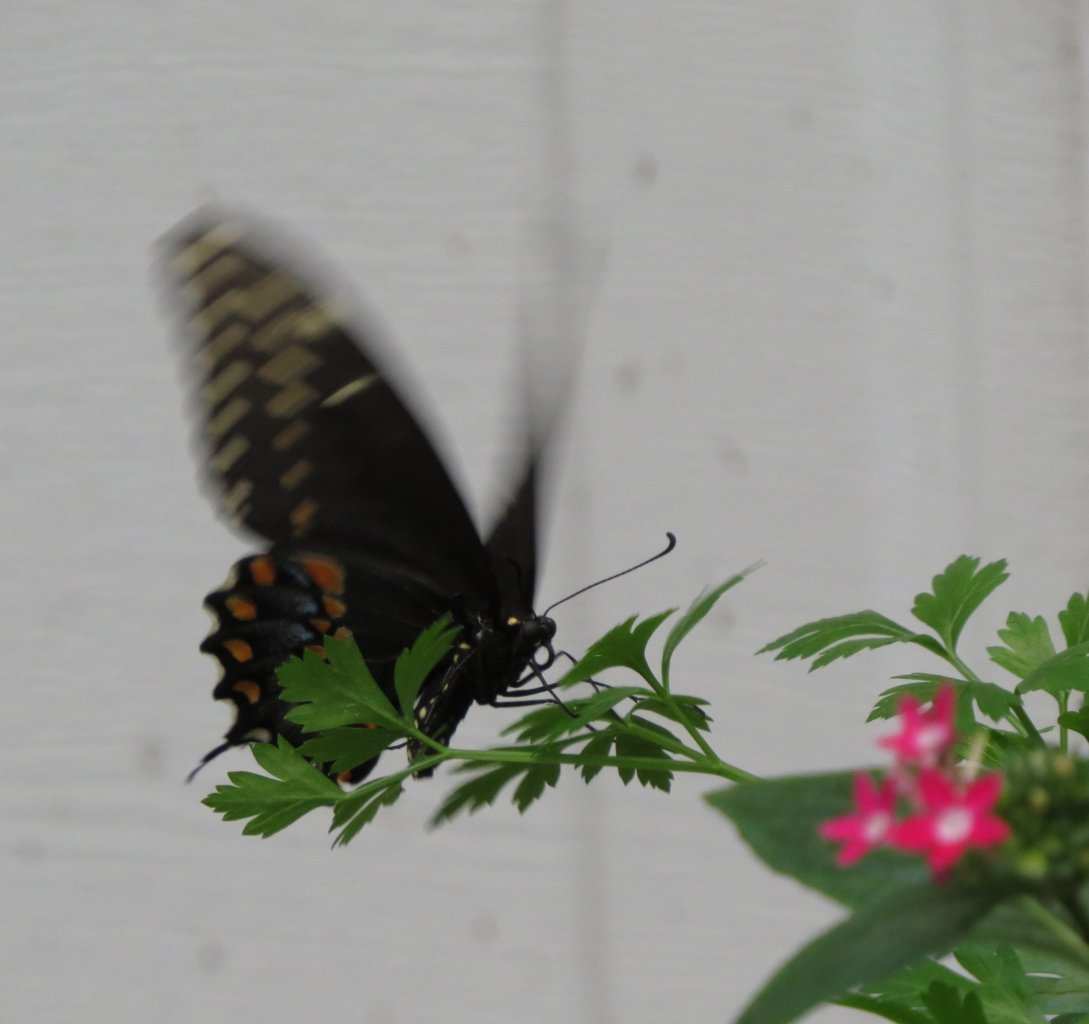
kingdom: Animalia
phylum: Arthropoda
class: Insecta
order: Lepidoptera
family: Papilionidae
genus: Papilio
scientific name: Papilio polyxenes
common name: Black Swallowtail
